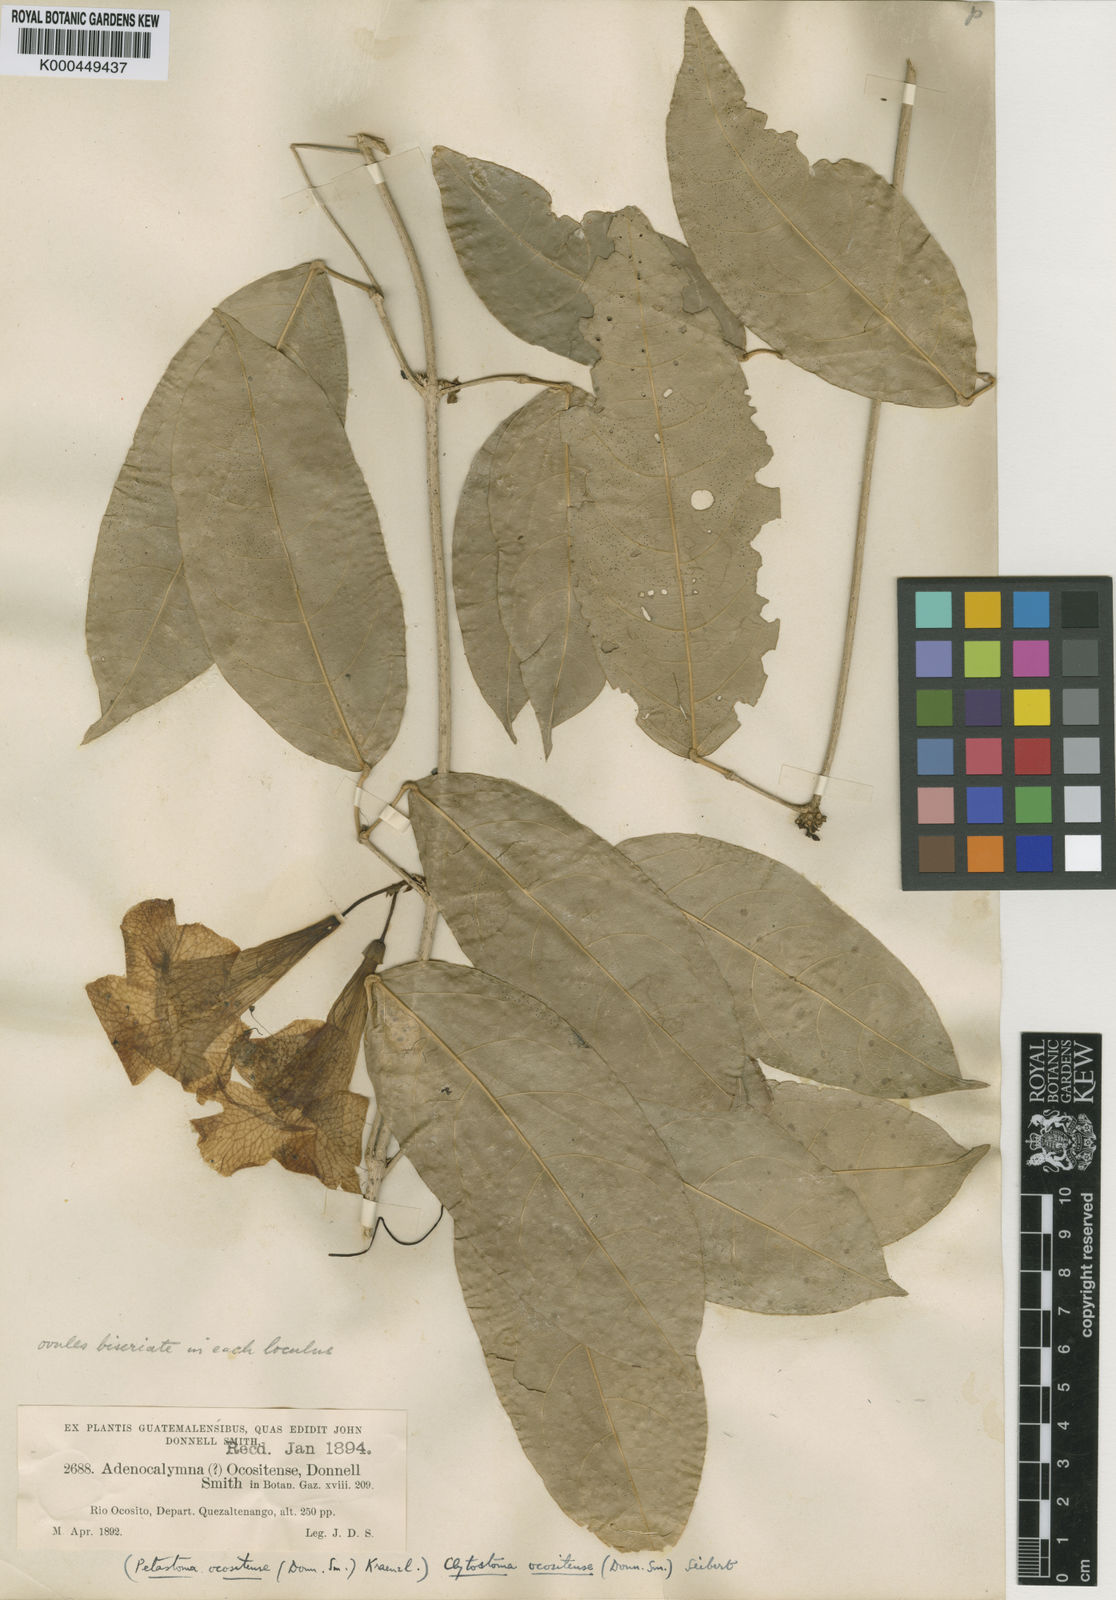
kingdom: Plantae
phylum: Tracheophyta
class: Magnoliopsida
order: Lamiales
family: Bignoniaceae
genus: Bignonia
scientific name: Bignonia noterophila
